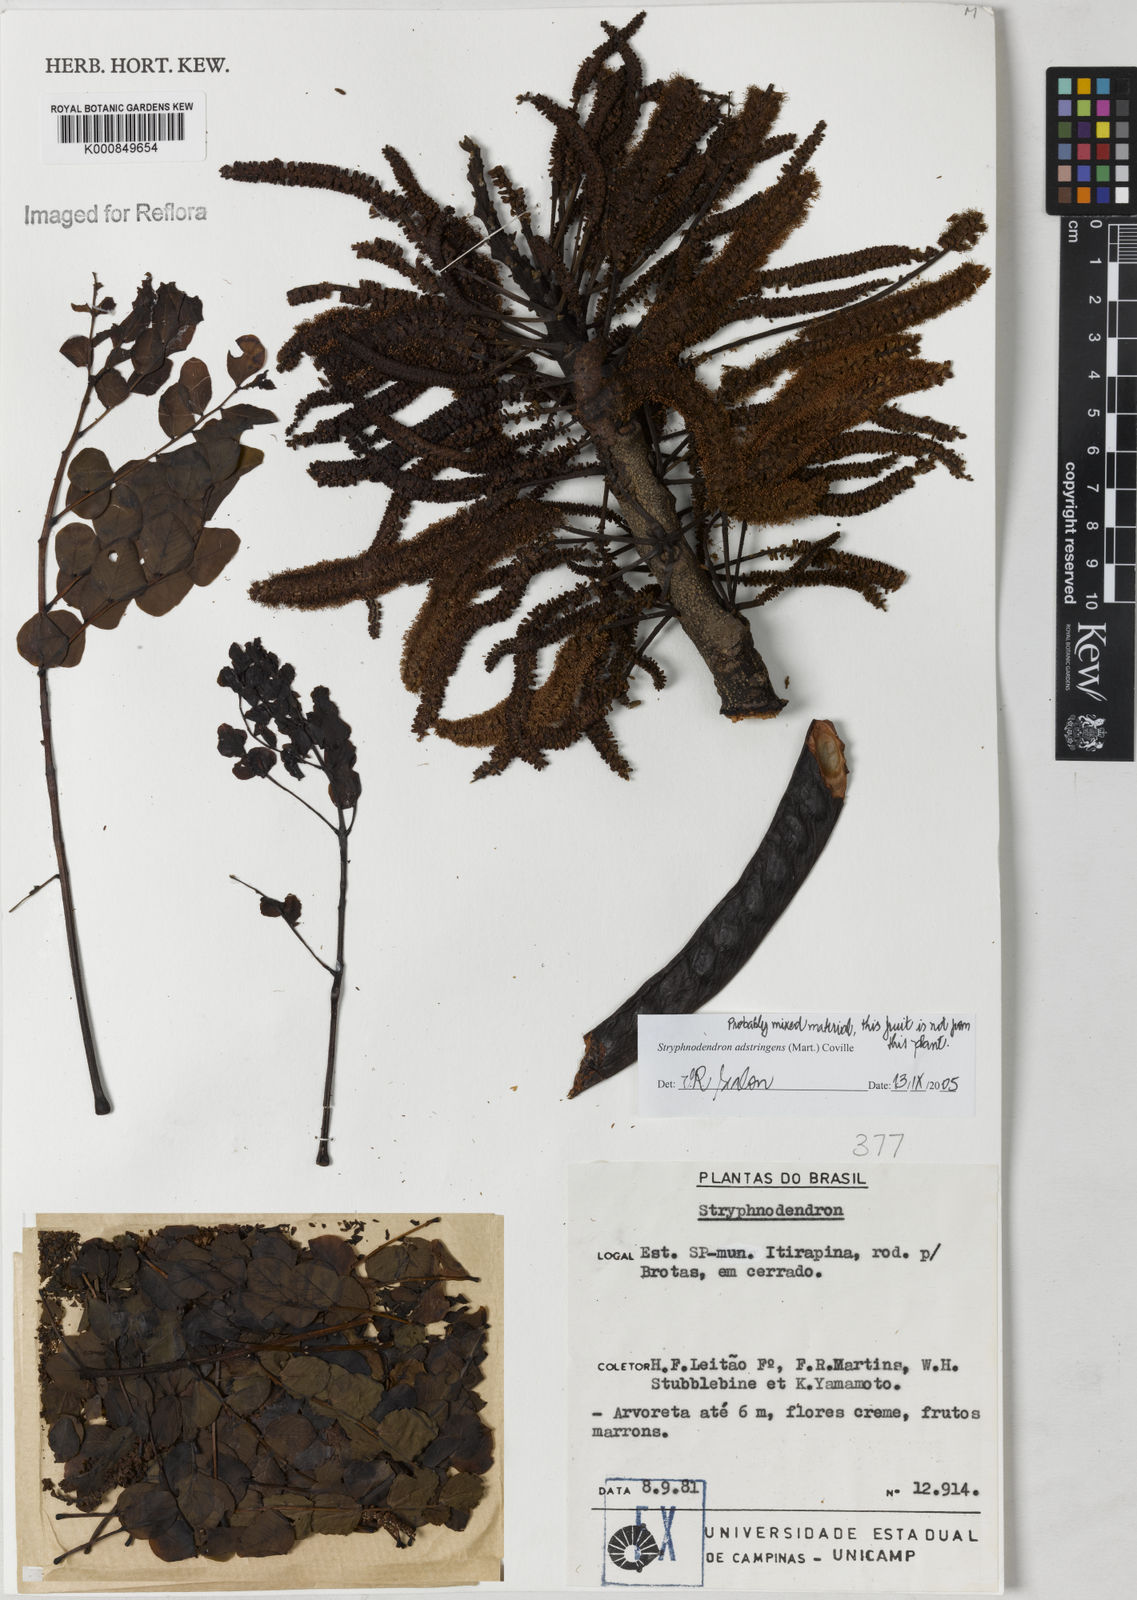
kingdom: Plantae
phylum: Tracheophyta
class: Magnoliopsida
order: Fabales
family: Fabaceae
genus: Stryphnodendron
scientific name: Stryphnodendron adstringens
